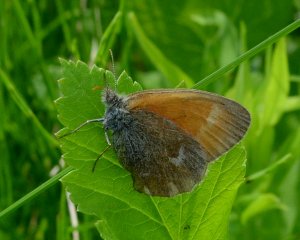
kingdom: Animalia
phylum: Arthropoda
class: Insecta
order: Lepidoptera
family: Nymphalidae
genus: Coenonympha
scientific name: Coenonympha tullia
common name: Large Heath
